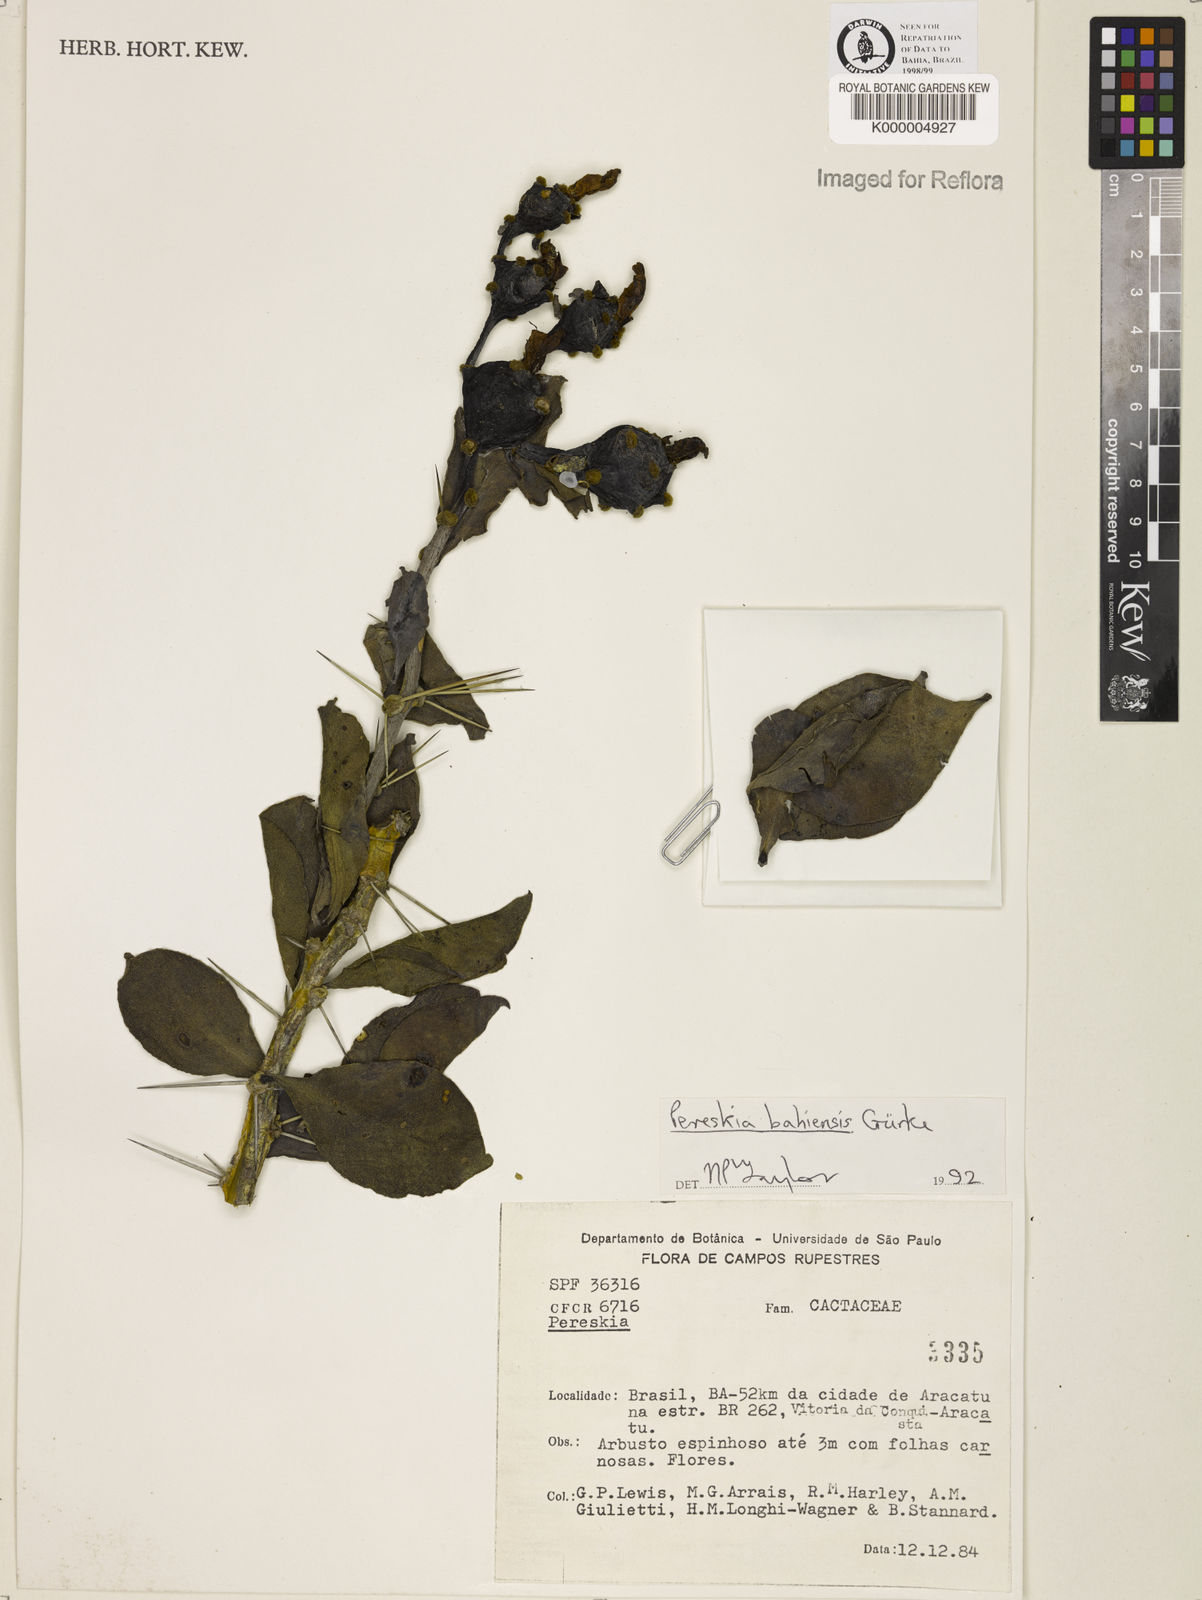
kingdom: Plantae
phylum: Tracheophyta
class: Magnoliopsida
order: Caryophyllales
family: Cactaceae
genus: Pereskia
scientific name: Pereskia
